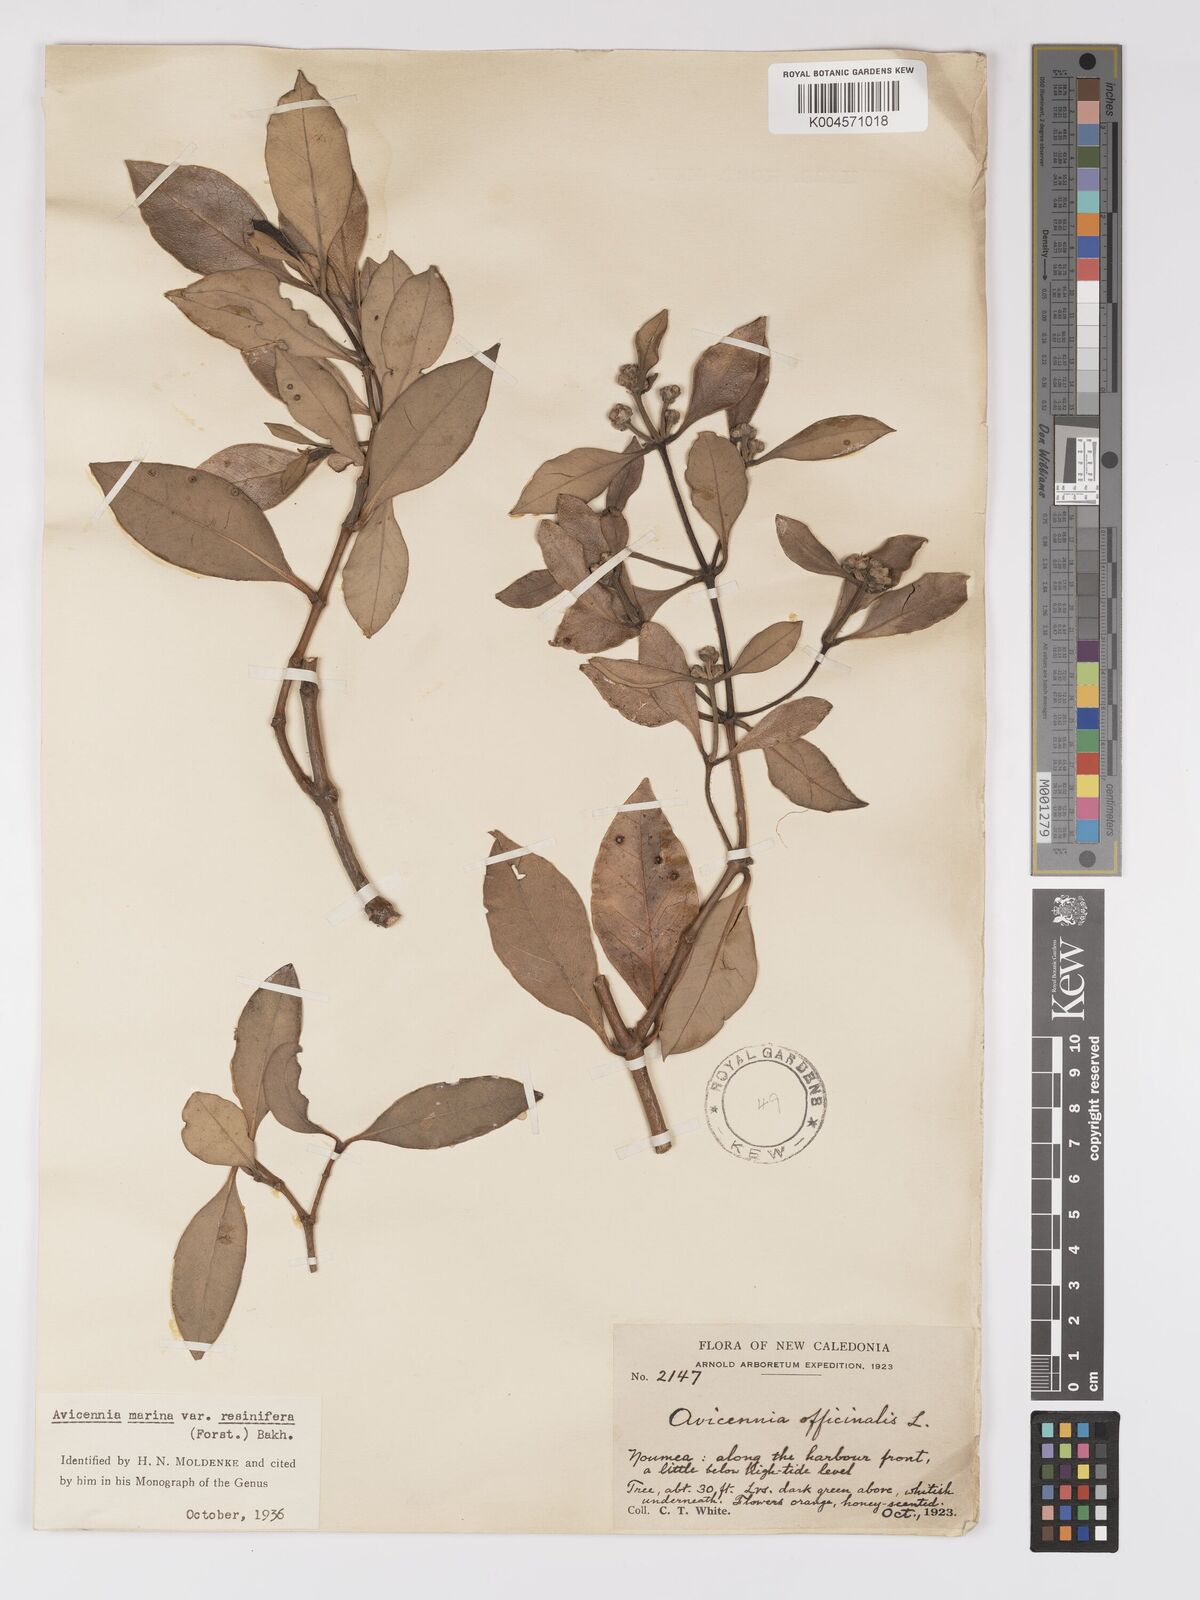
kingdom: Plantae
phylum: Tracheophyta
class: Magnoliopsida
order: Lamiales
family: Acanthaceae
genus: Avicennia
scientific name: Avicennia marina
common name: Gray mangrove
